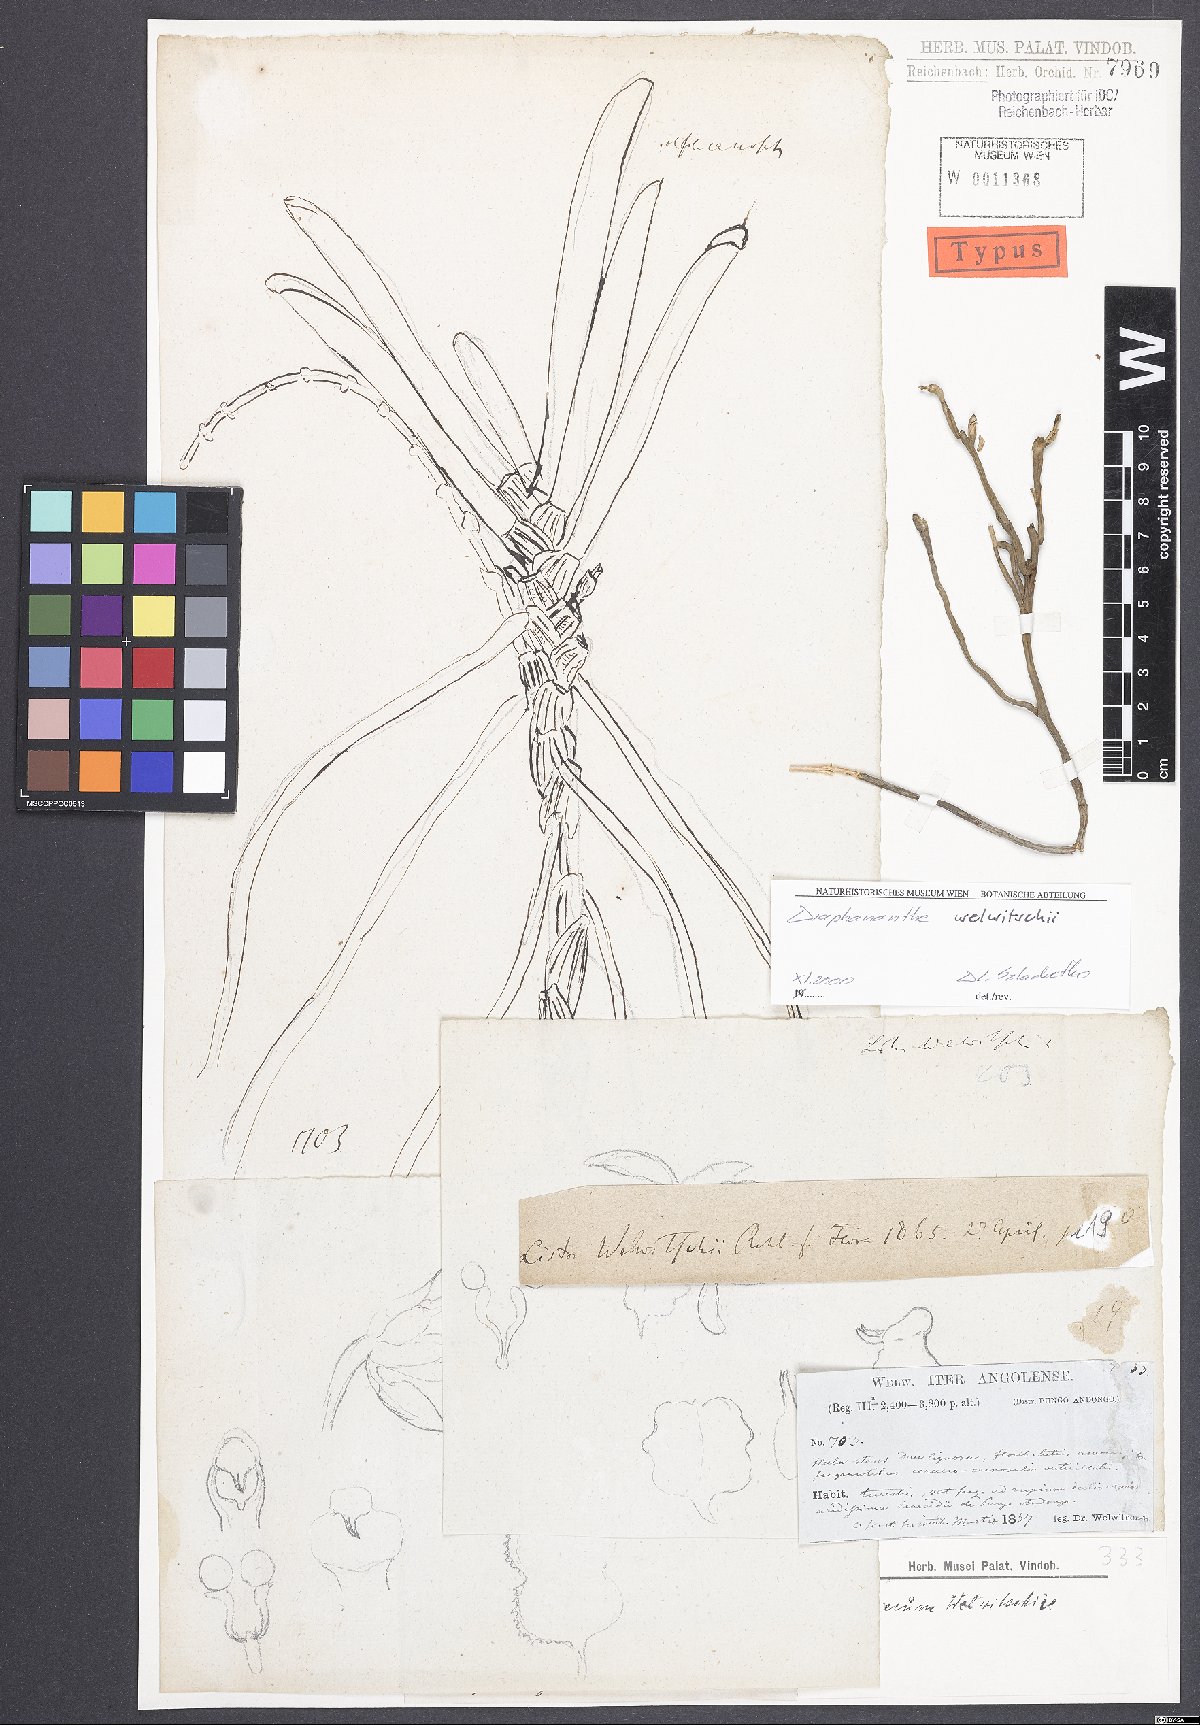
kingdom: Plantae
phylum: Tracheophyta
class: Liliopsida
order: Asparagales
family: Orchidaceae
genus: Diaphananthe
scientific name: Diaphananthe welwitschii
